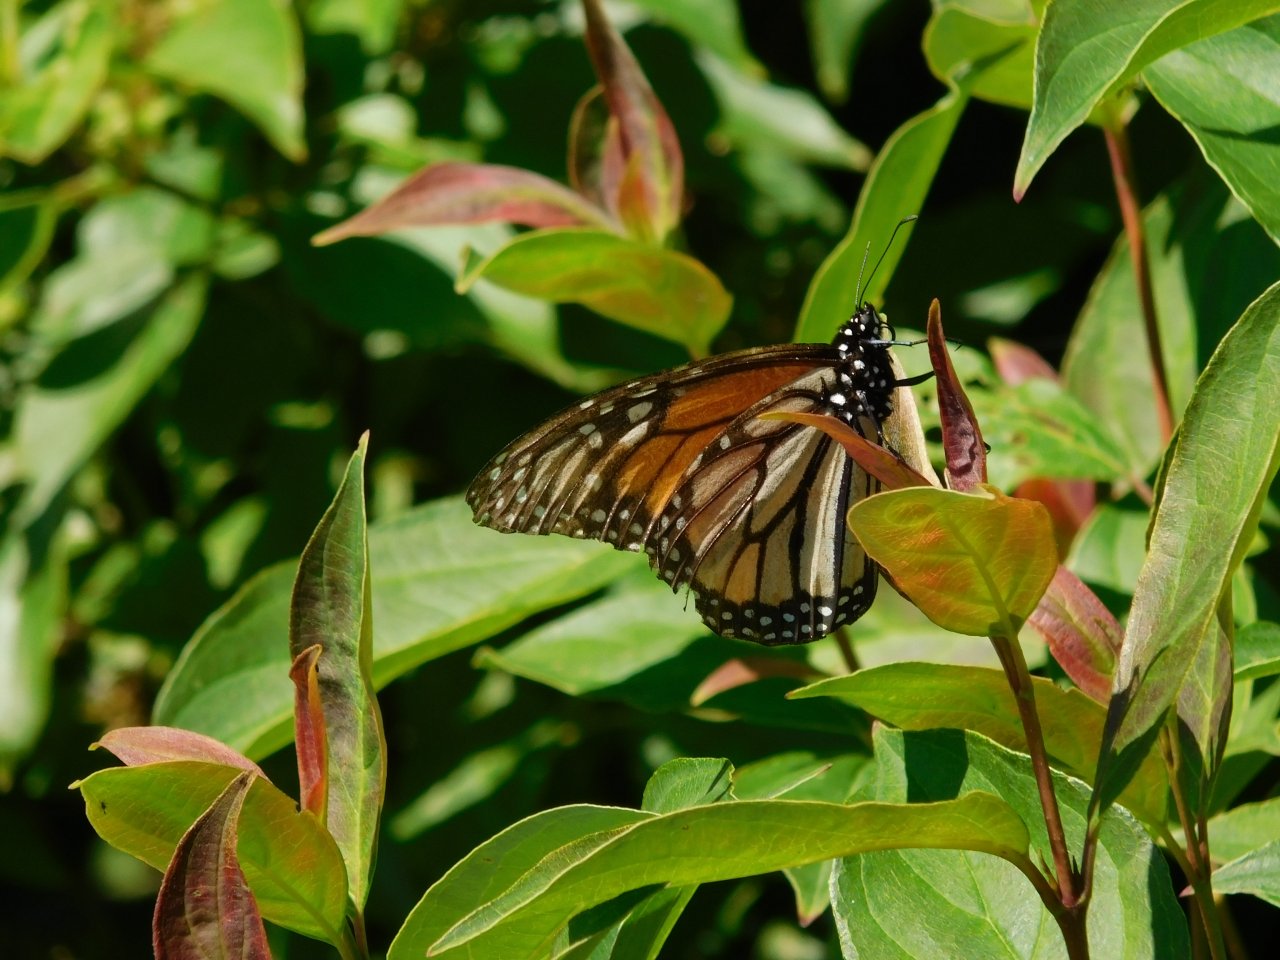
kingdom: Animalia
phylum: Arthropoda
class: Insecta
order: Lepidoptera
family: Nymphalidae
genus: Danaus
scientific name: Danaus plexippus
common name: Monarch
